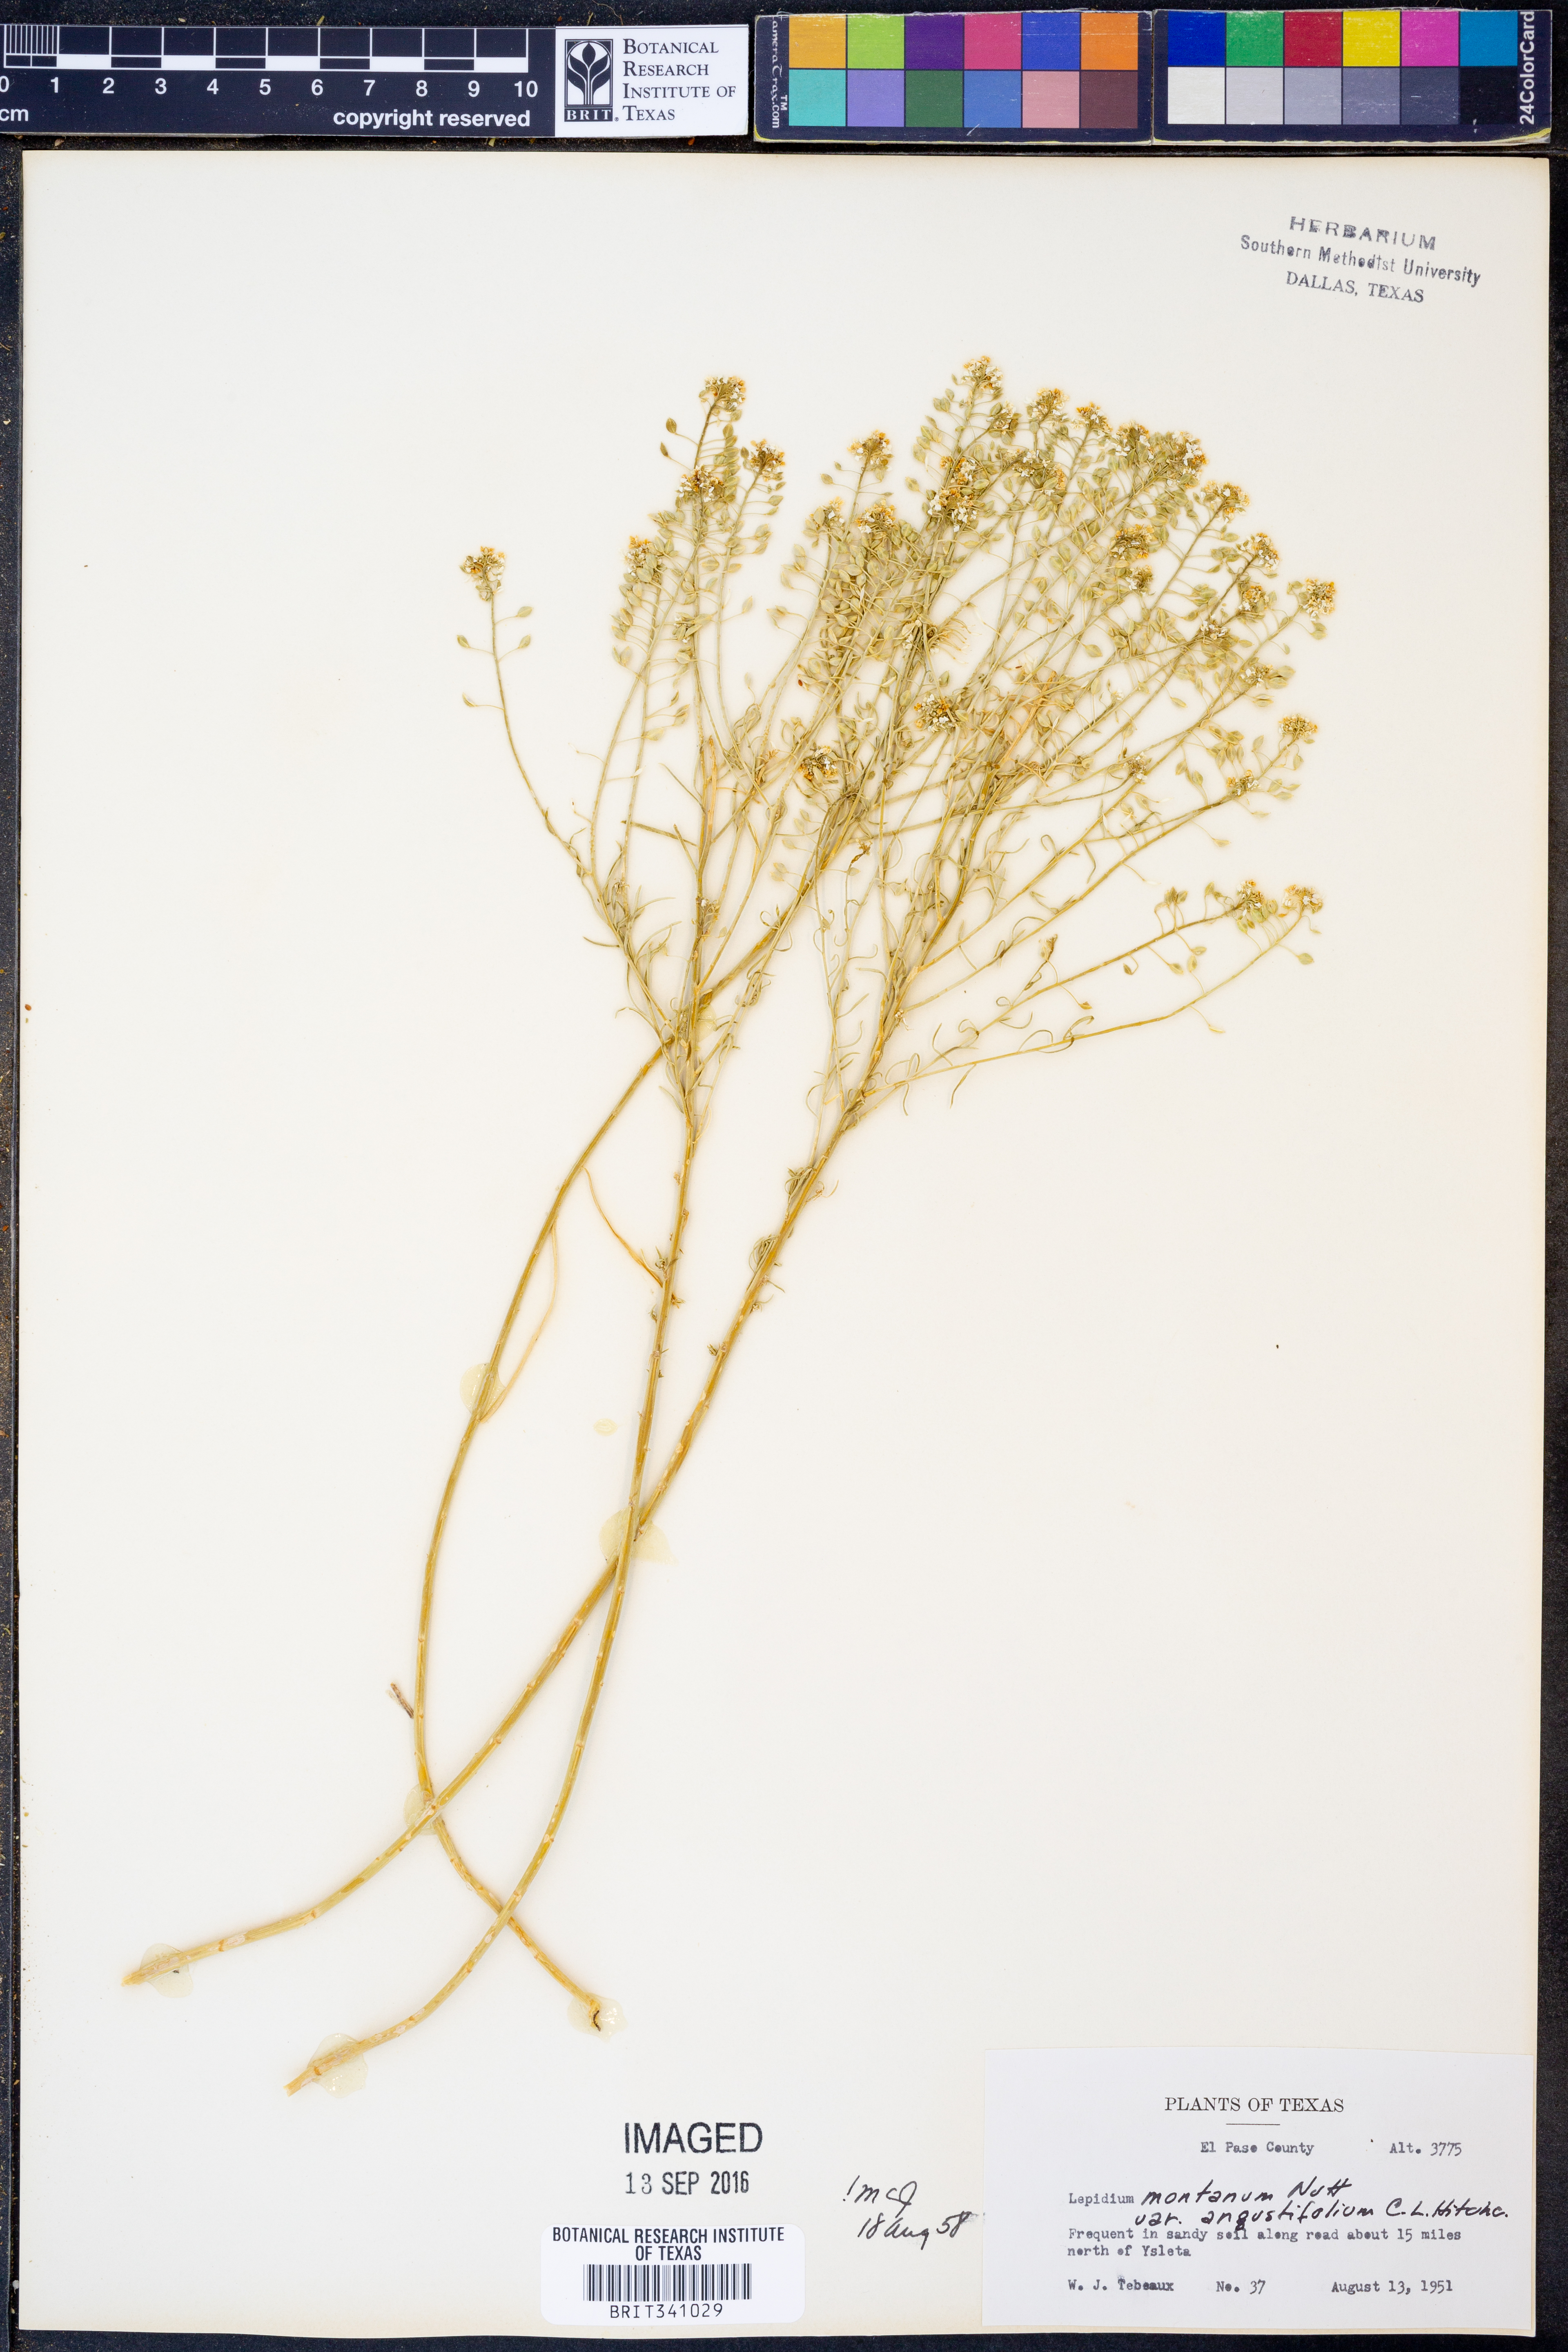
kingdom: Plantae
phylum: Tracheophyta
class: Magnoliopsida
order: Brassicales
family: Brassicaceae
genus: Lepidium
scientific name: Lepidium alyssoides
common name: Mesa pepperweed
